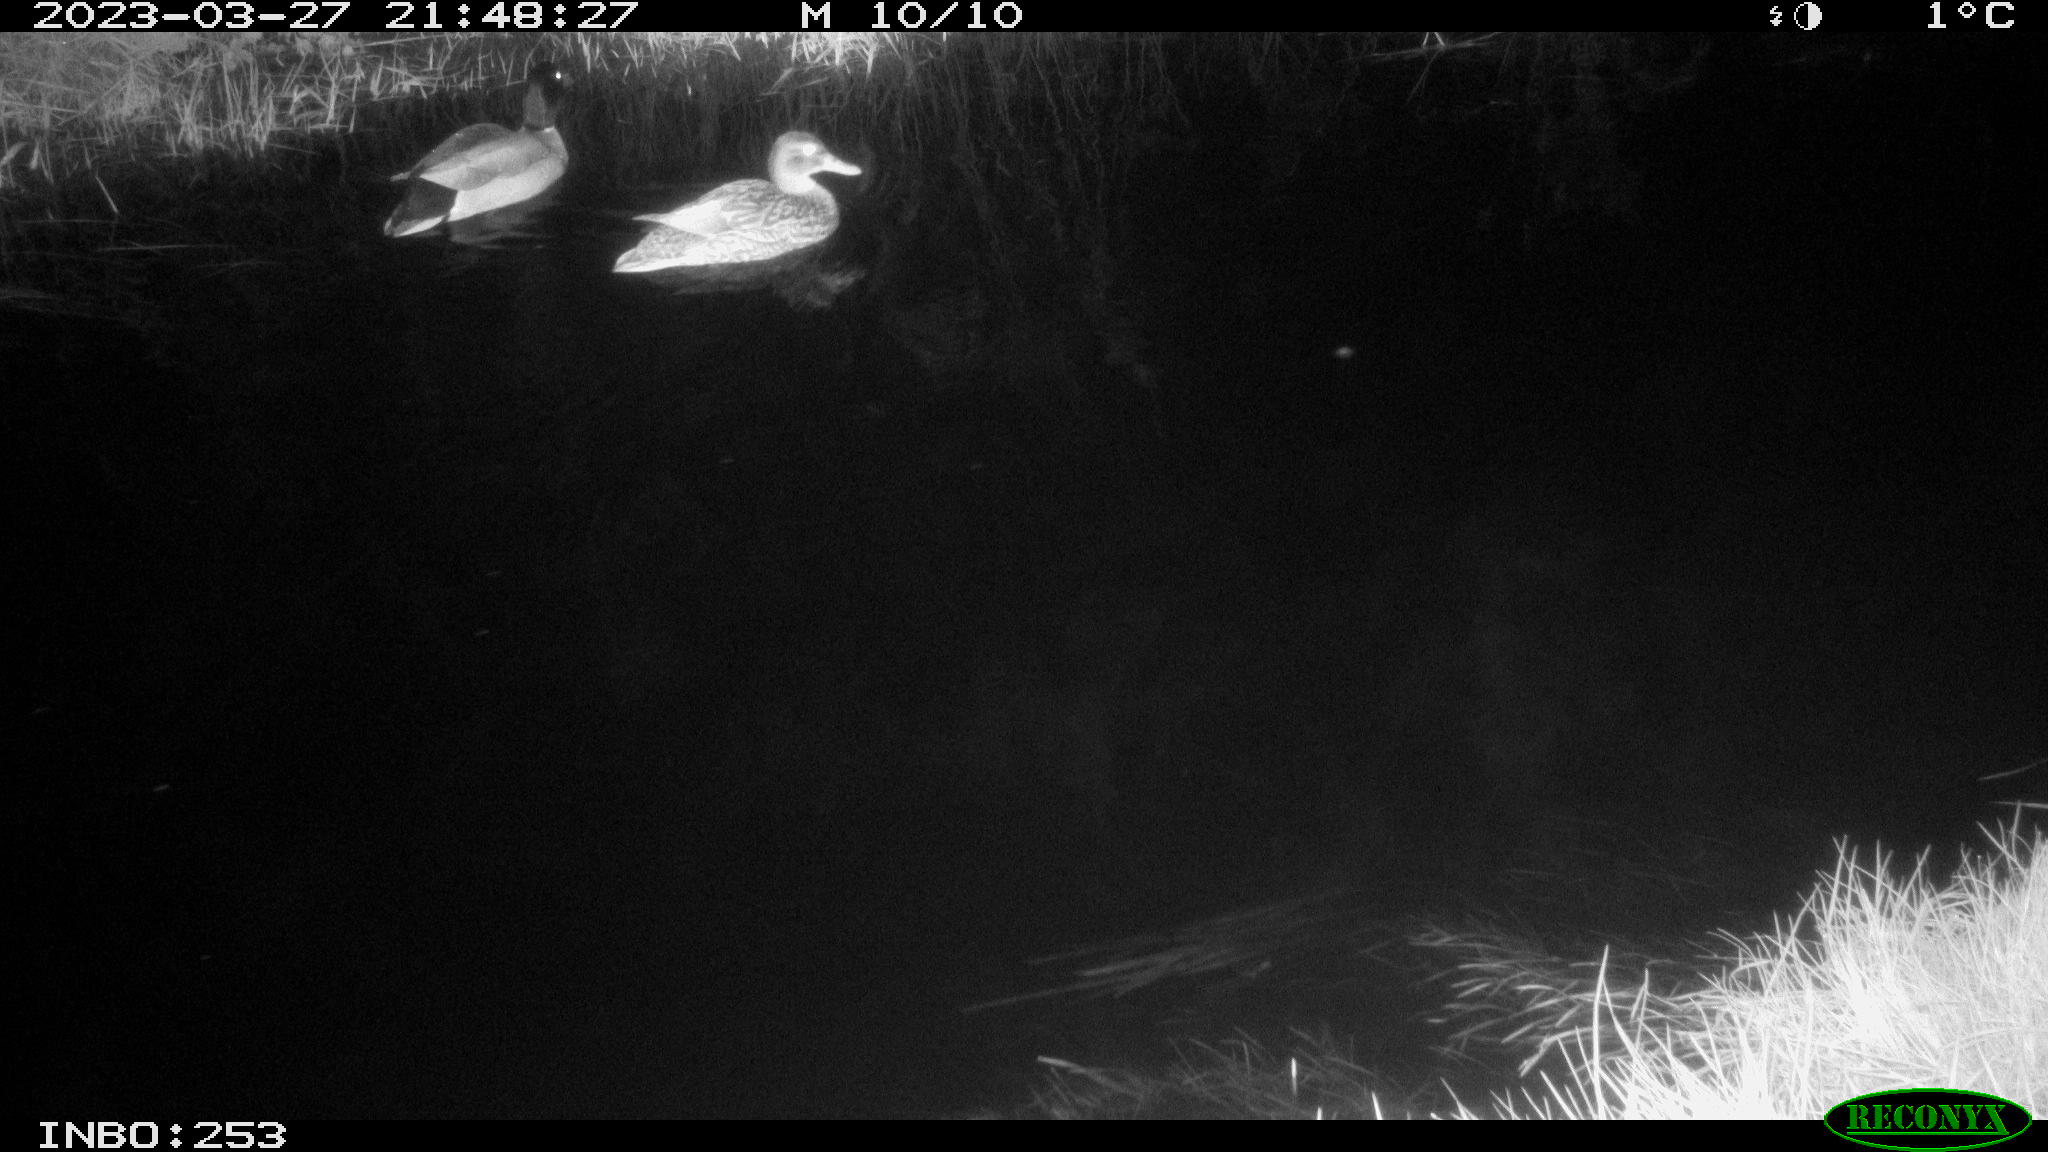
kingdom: Animalia
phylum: Chordata
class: Aves
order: Anseriformes
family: Anatidae
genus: Anas
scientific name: Anas
